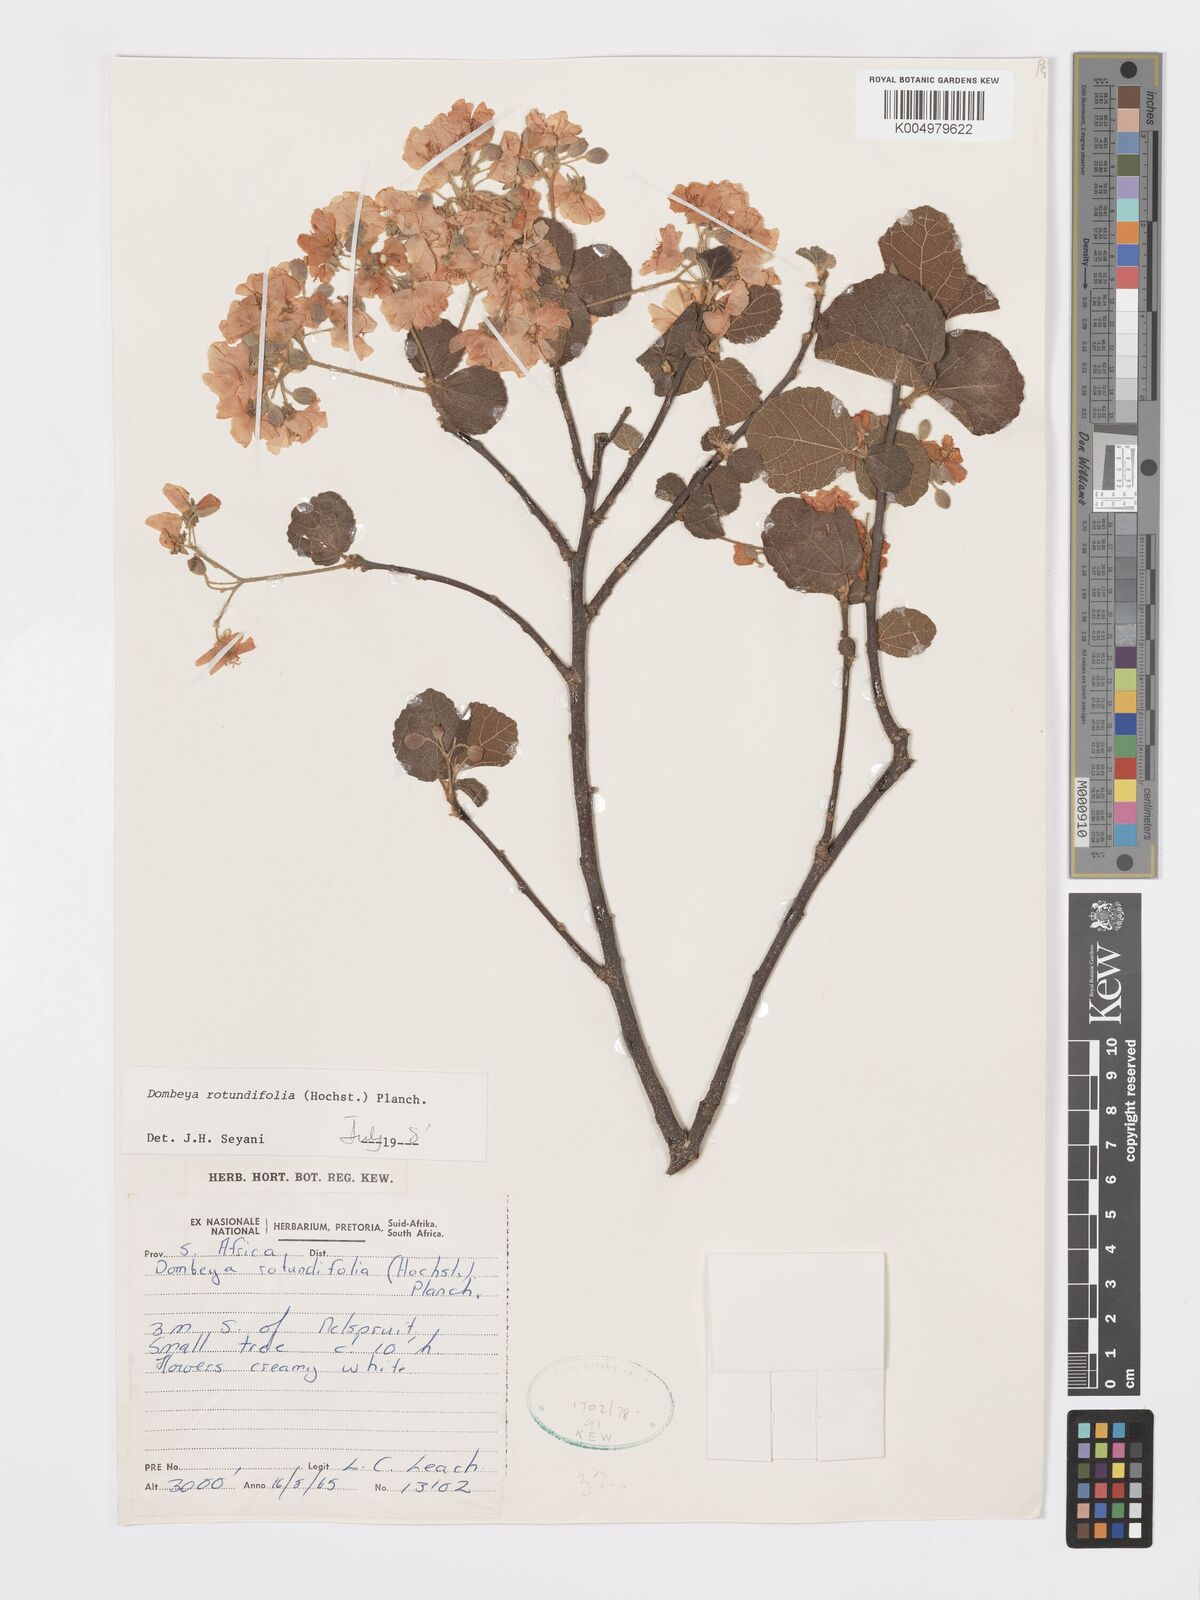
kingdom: Plantae
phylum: Tracheophyta
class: Magnoliopsida
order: Malvales
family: Malvaceae
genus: Dombeya
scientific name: Dombeya rotundifolia
